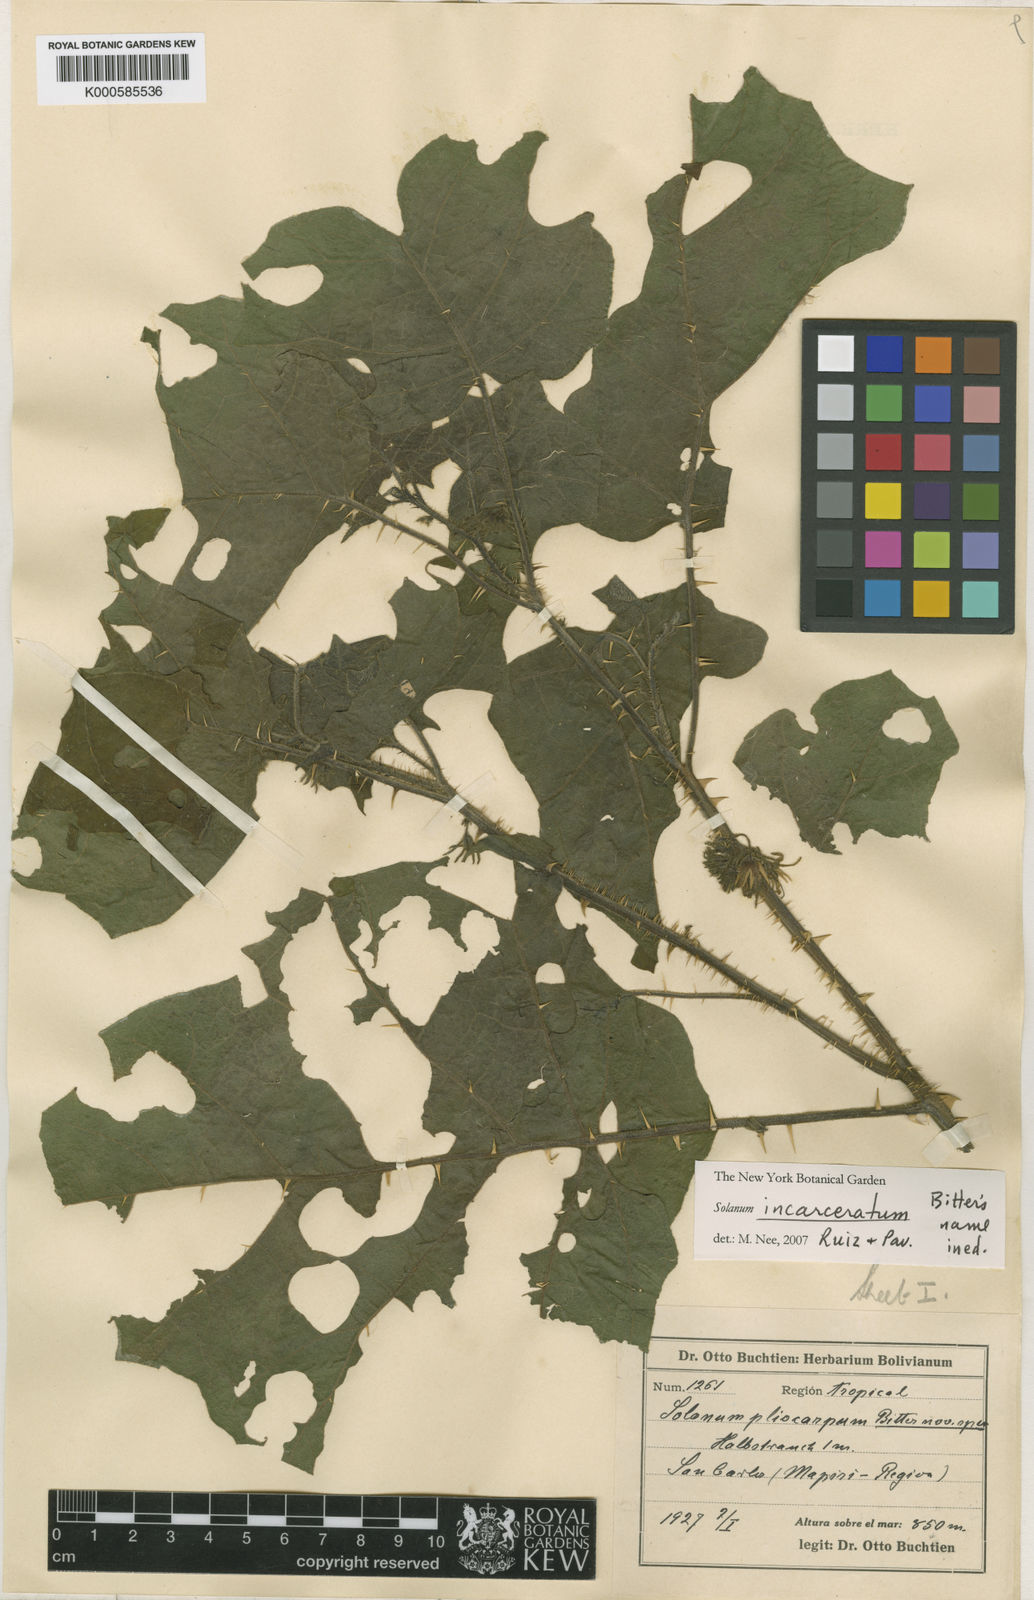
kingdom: Plantae
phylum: Tracheophyta
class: Magnoliopsida
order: Solanales
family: Solanaceae
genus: Solanum
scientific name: Solanum incarceratum
